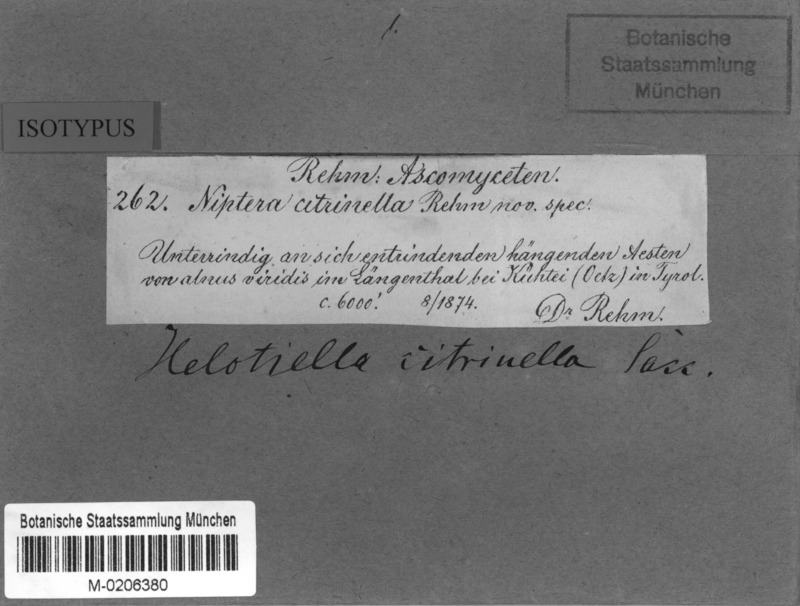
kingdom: Fungi
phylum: Ascomycota
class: Leotiomycetes
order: Helotiales
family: Mollisiaceae
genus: Dibeloniella
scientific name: Dibeloniella citrinella
